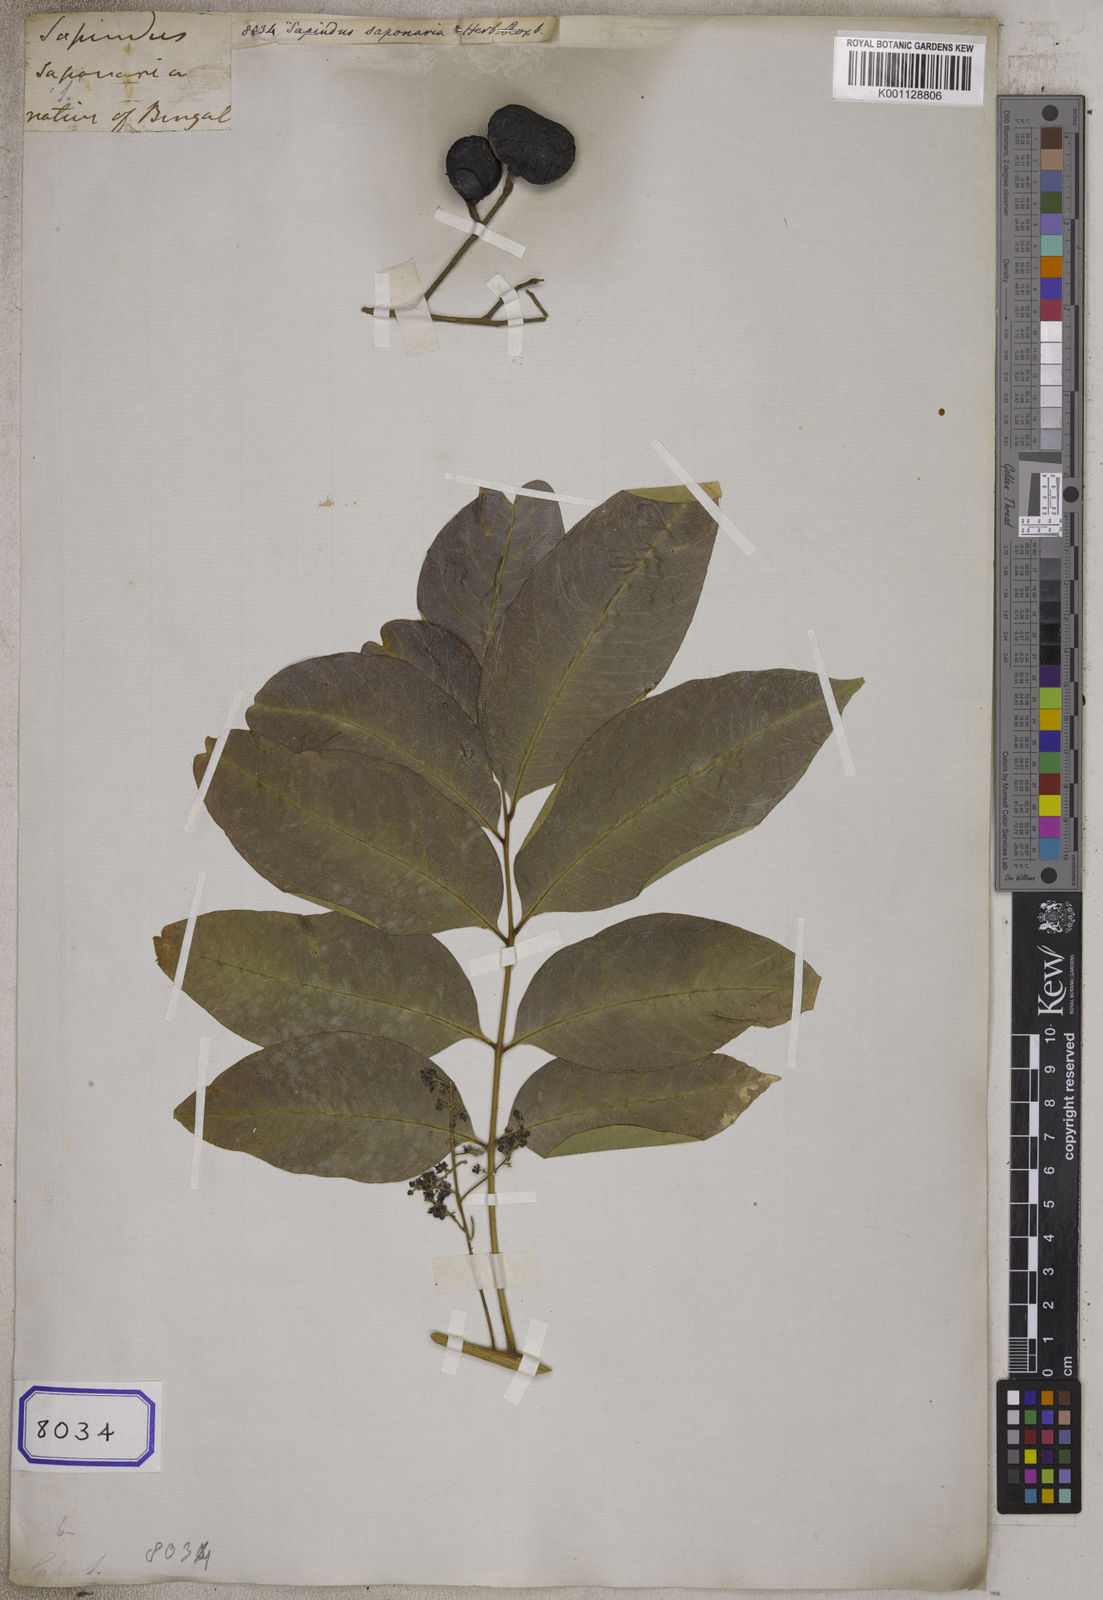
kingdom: Plantae
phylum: Tracheophyta
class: Magnoliopsida
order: Sapindales
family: Sapindaceae
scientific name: Sapindaceae
